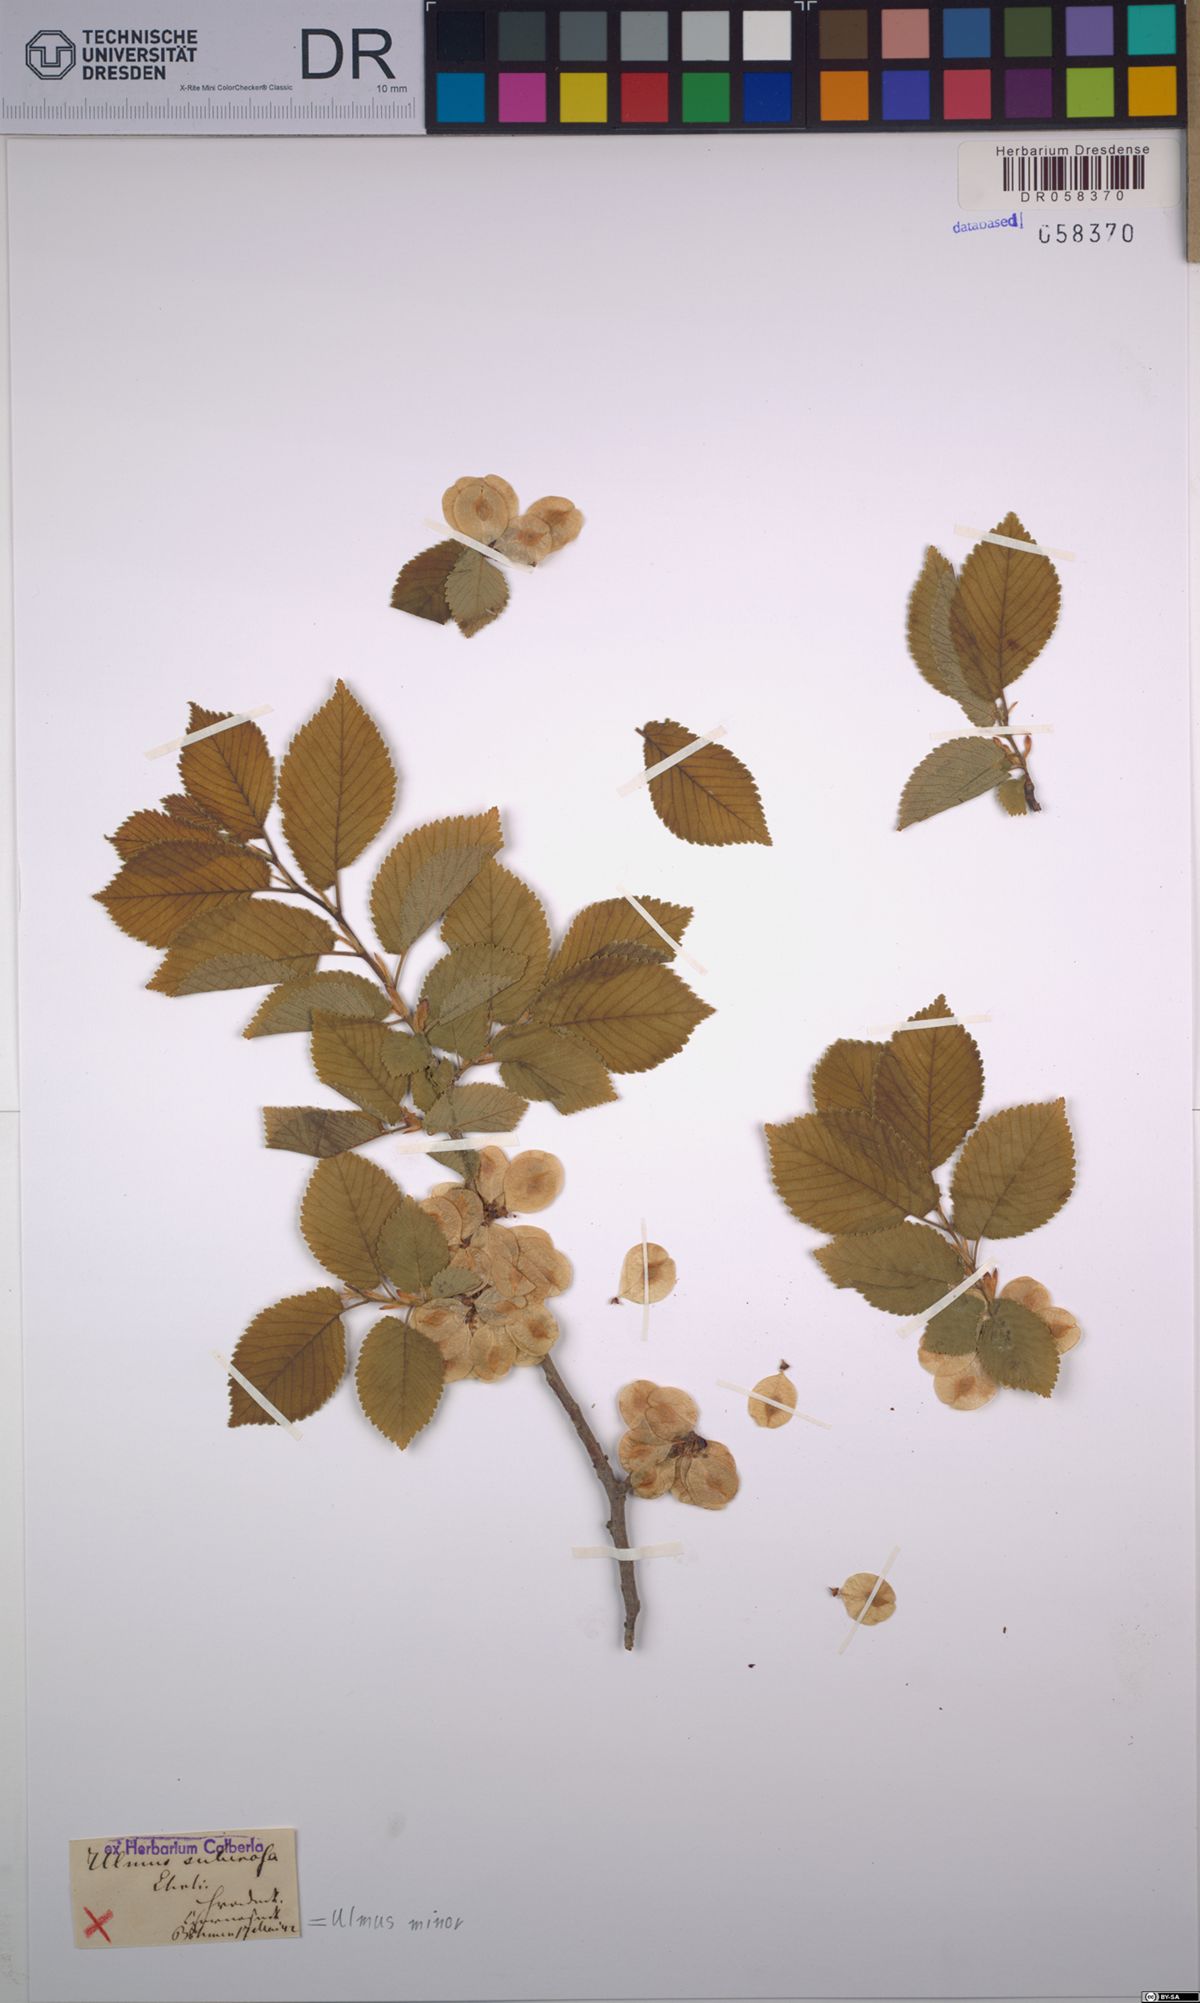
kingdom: Plantae
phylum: Tracheophyta
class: Magnoliopsida
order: Rosales
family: Ulmaceae
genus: Ulmus
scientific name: Ulmus minor
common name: Small-leaved elm
